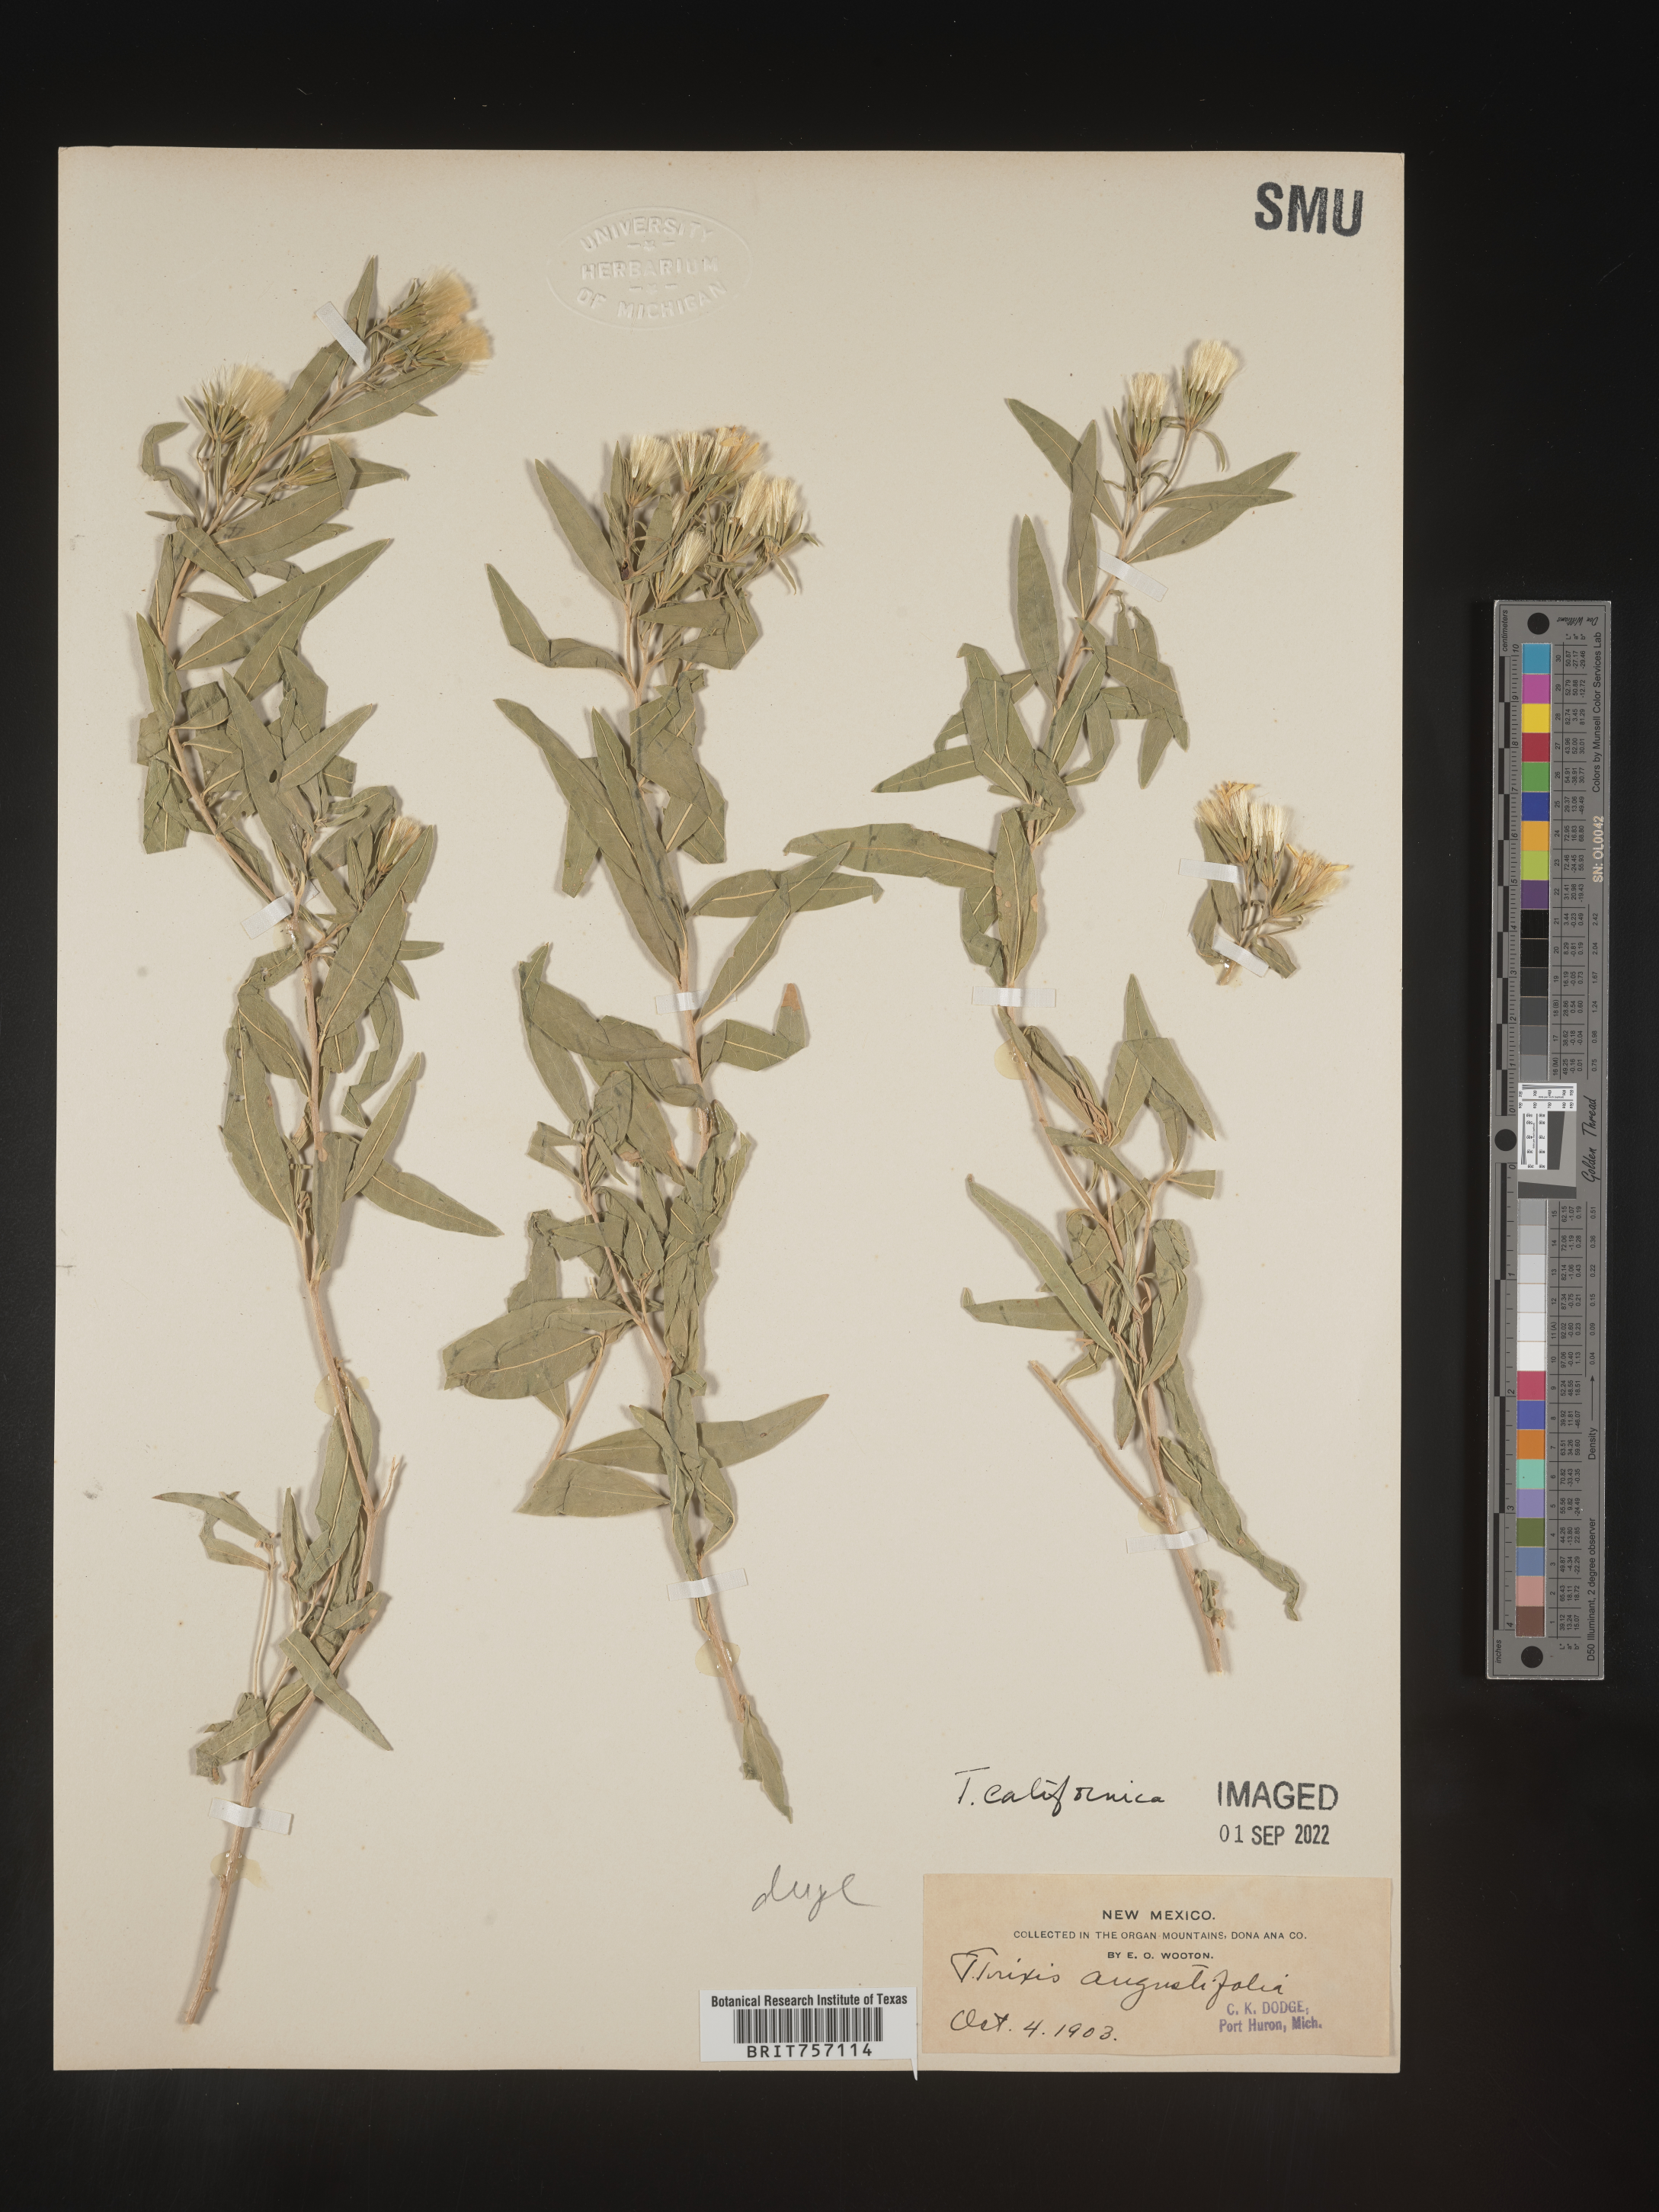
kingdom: Plantae
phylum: Tracheophyta
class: Magnoliopsida
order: Asterales
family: Asteraceae
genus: Trixis
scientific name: Trixis
